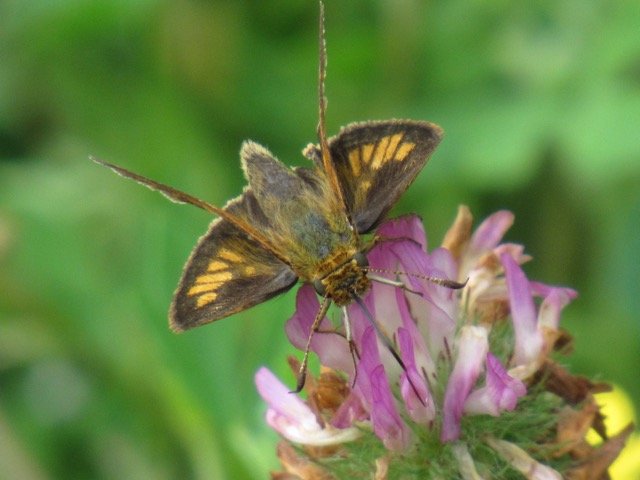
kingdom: Animalia
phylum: Arthropoda
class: Insecta
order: Lepidoptera
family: Hesperiidae
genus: Polites
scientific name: Polites coras
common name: Peck's Skipper
